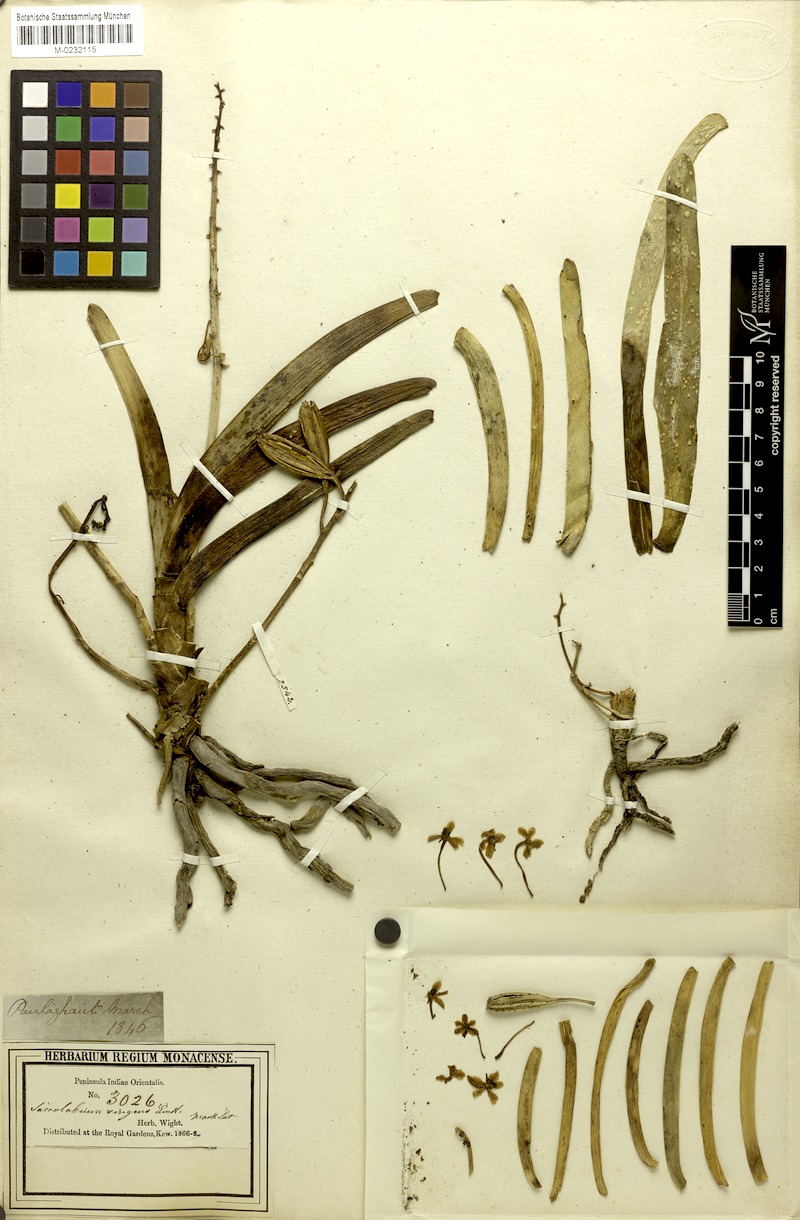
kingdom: Plantae
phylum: Tracheophyta
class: Liliopsida
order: Asparagales
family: Orchidaceae
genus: Aerides
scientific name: Aerides ringens
